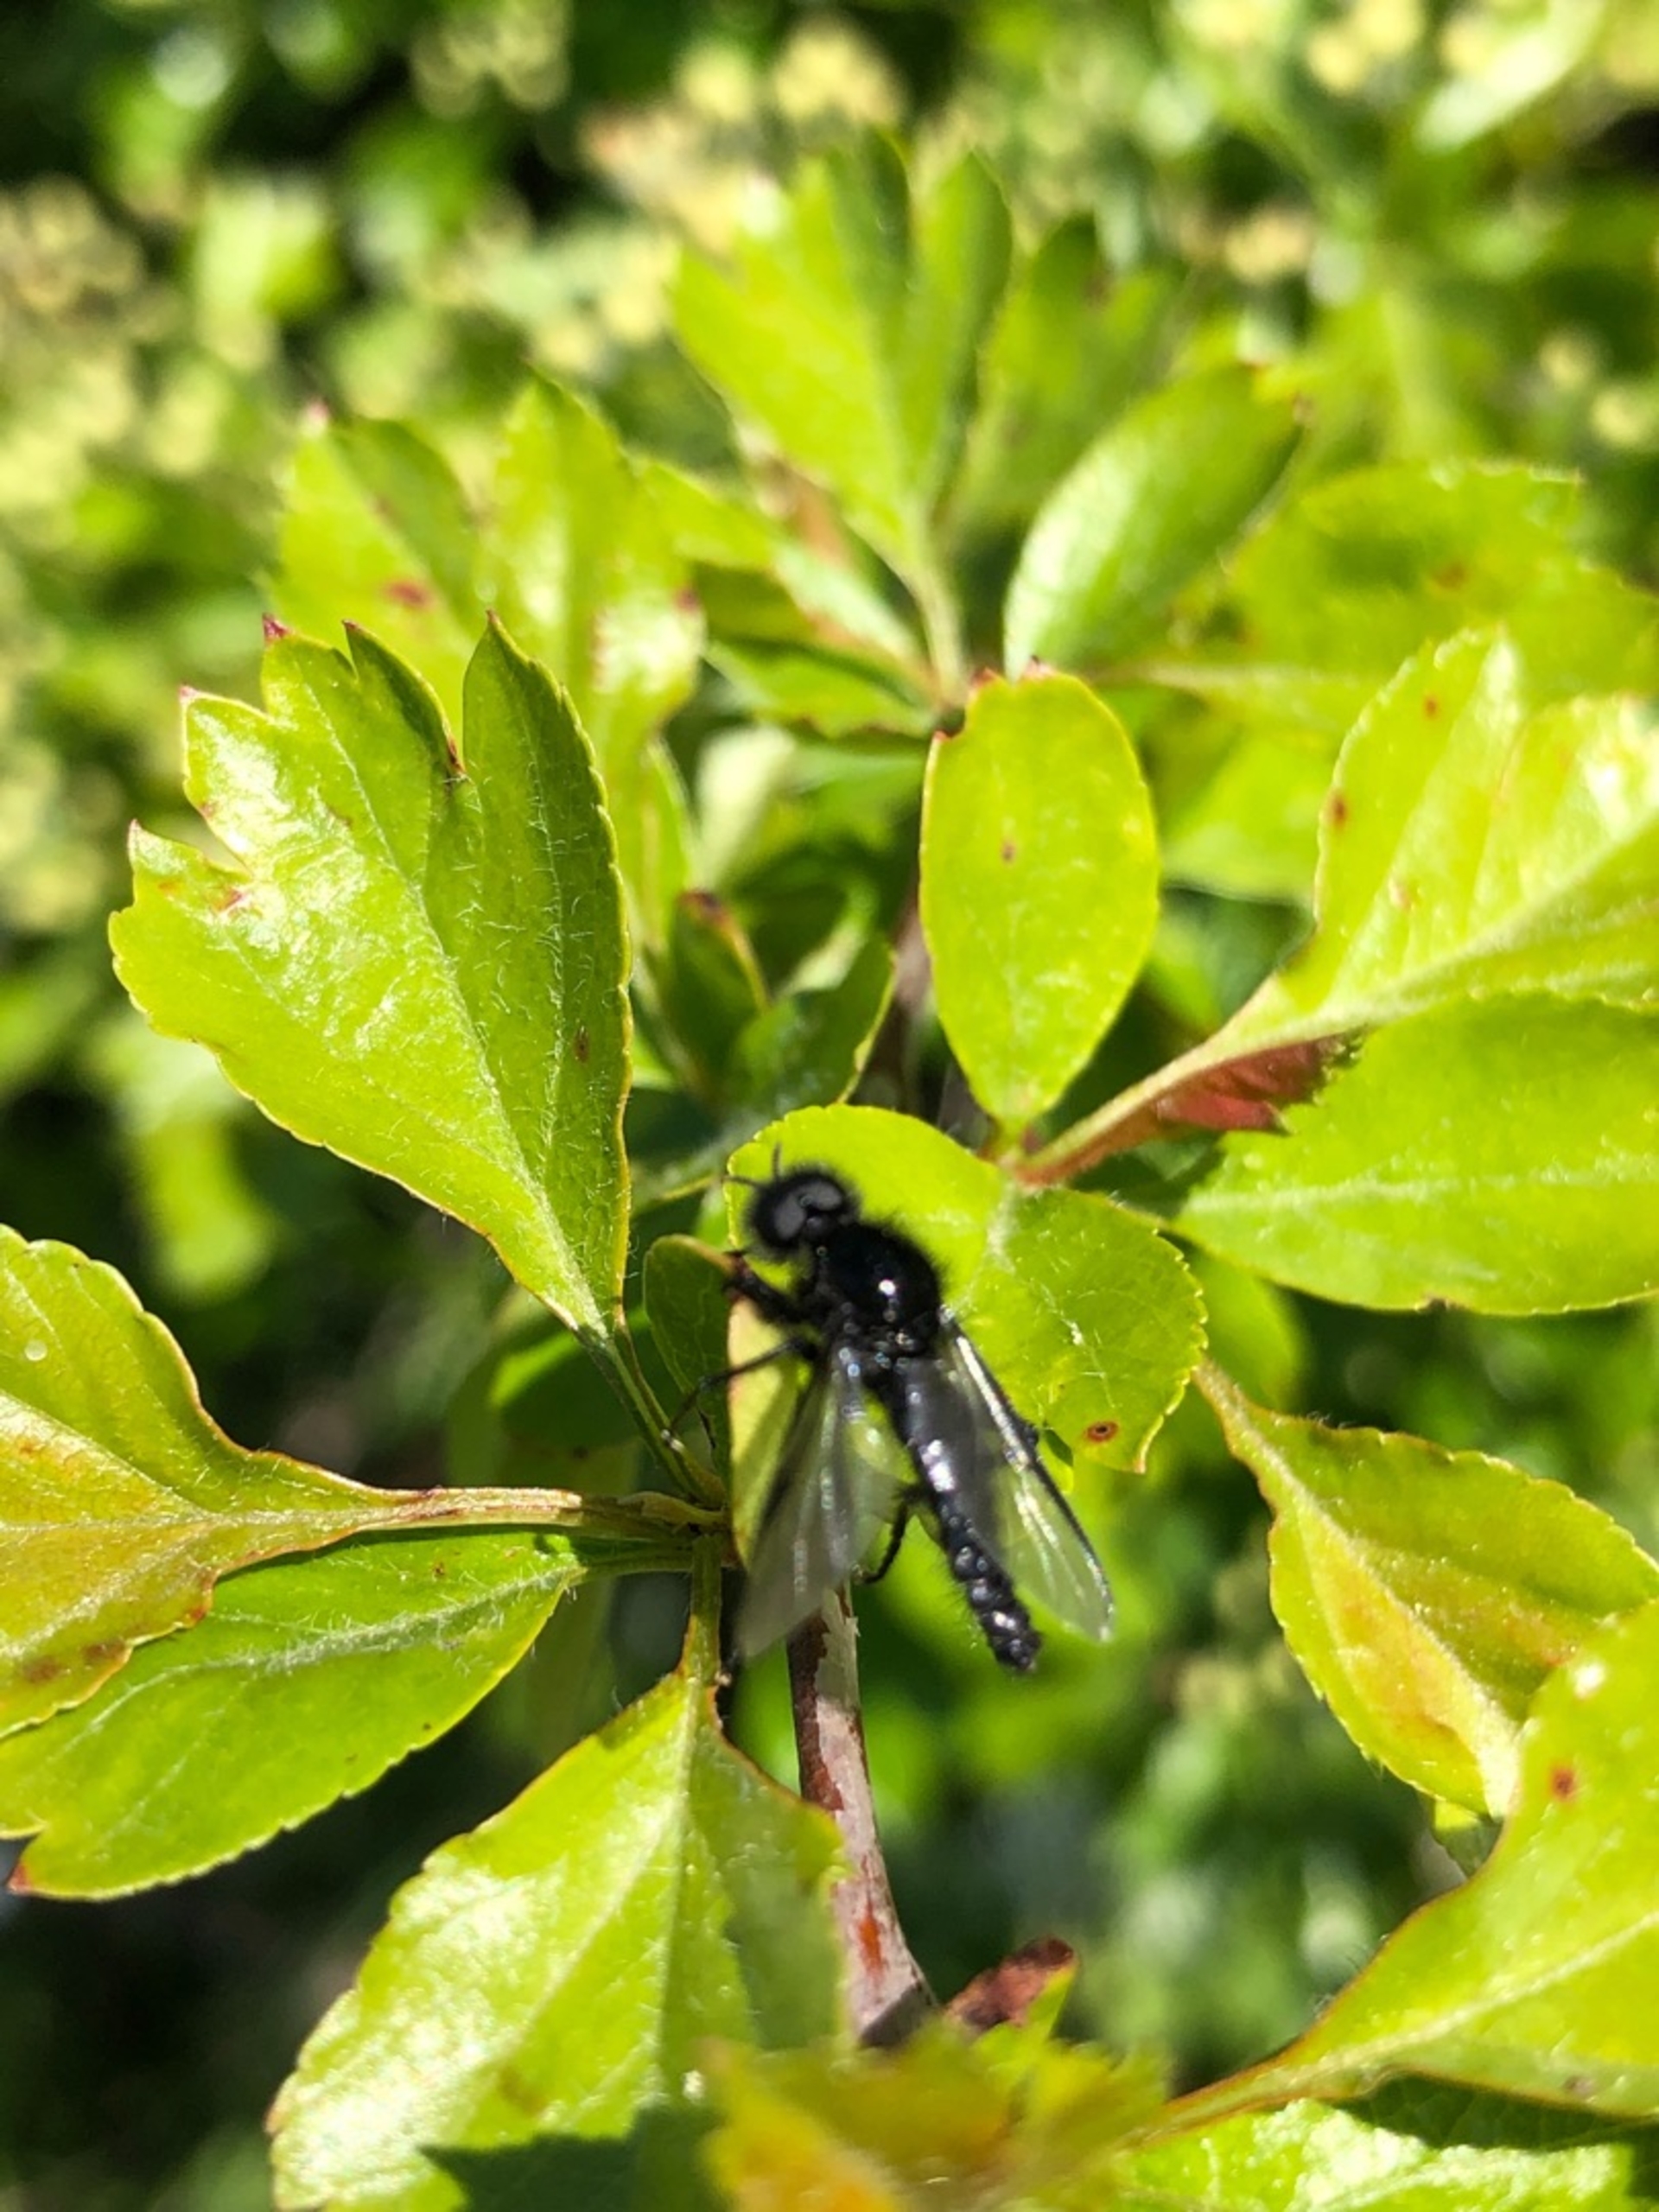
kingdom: Animalia
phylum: Arthropoda
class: Insecta
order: Diptera
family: Bibionidae
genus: Bibio
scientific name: Bibio
